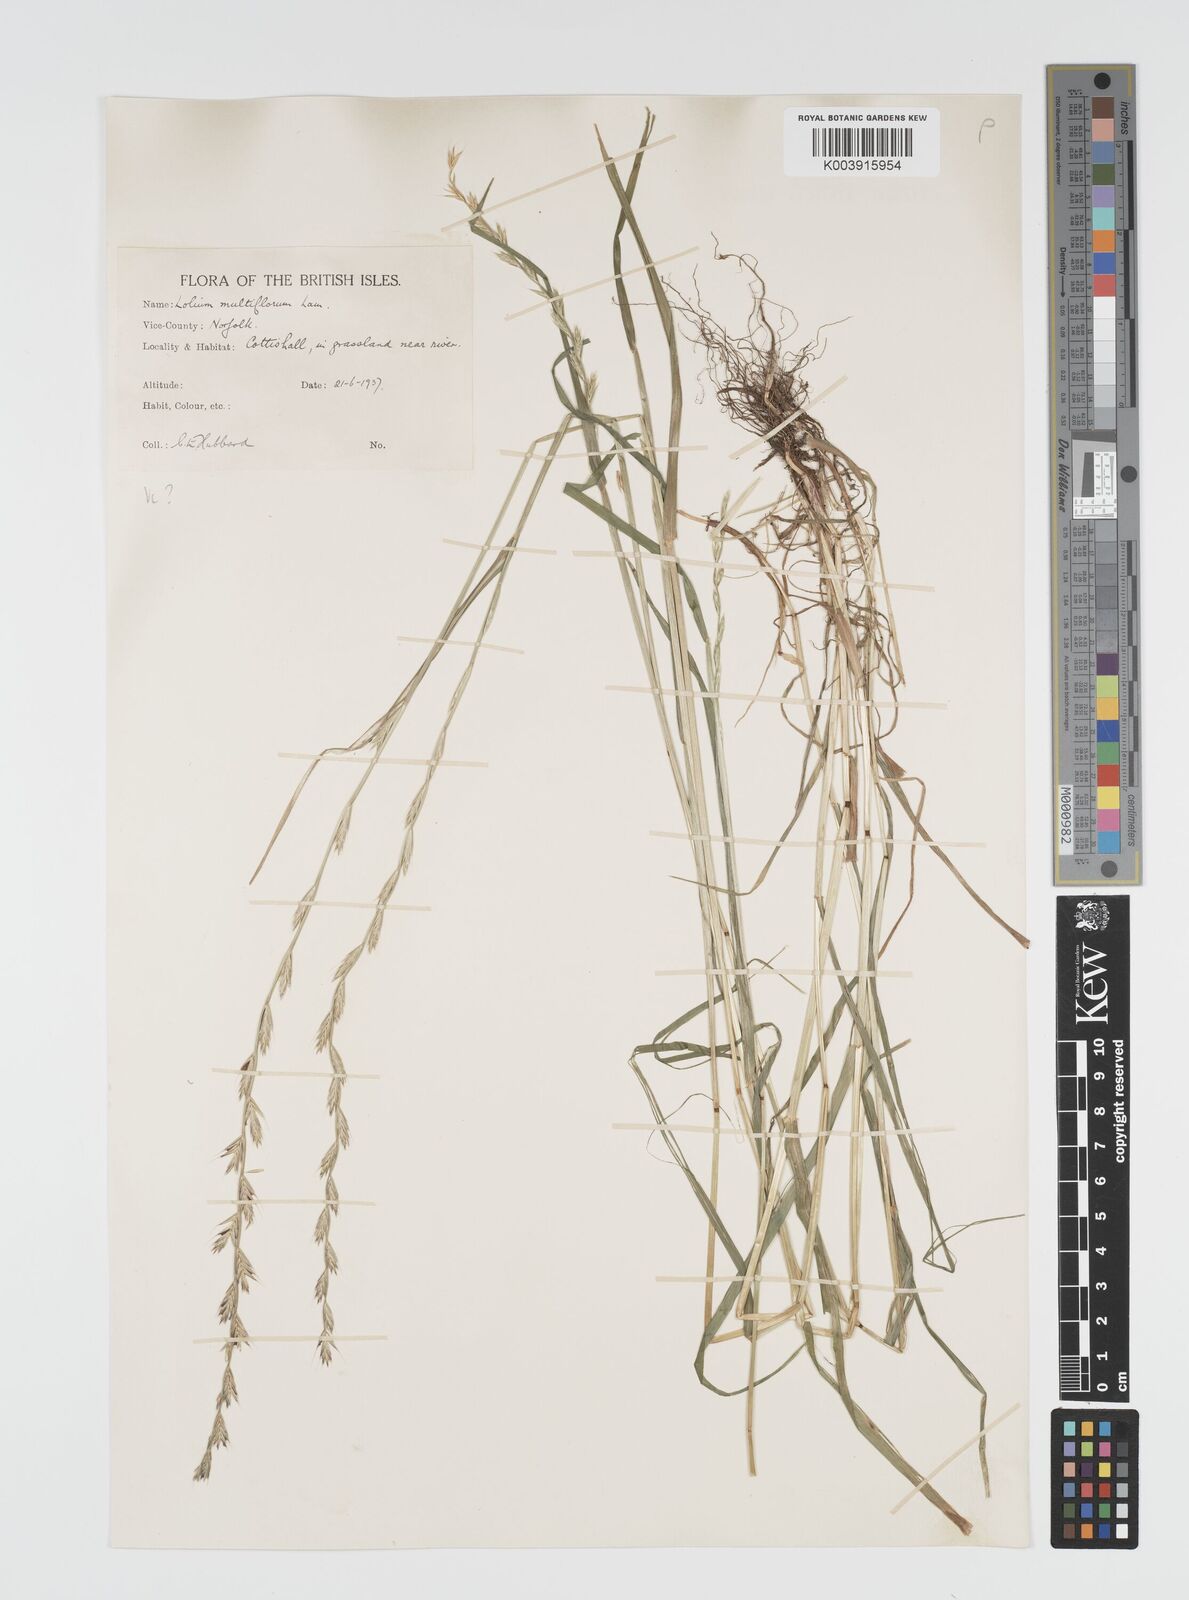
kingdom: Plantae
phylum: Tracheophyta
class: Liliopsida
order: Poales
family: Poaceae
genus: Lolium
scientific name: Lolium multiflorum
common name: Annual ryegrass
